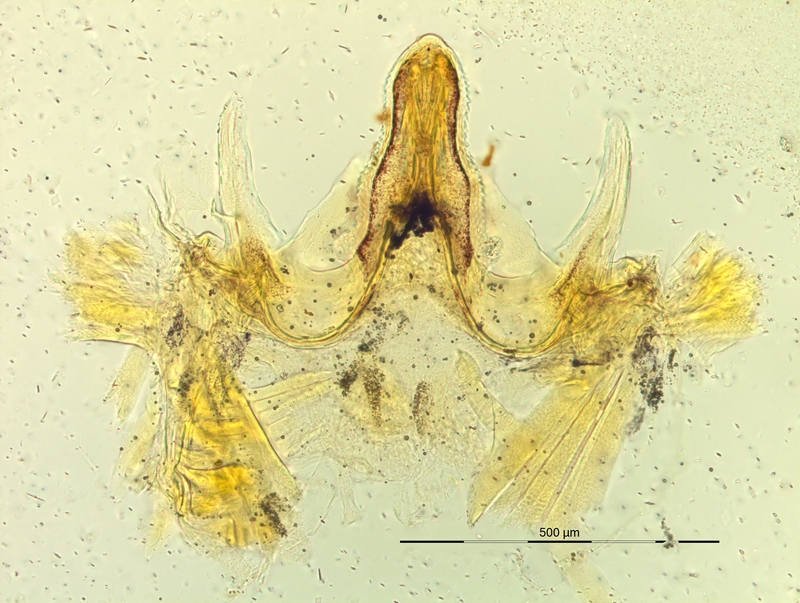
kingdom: Animalia
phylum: Arthropoda
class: Diplopoda
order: Chordeumatida
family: Craspedosomatidae
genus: Pyrgocyphosoma
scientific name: Pyrgocyphosoma dalmazzense
